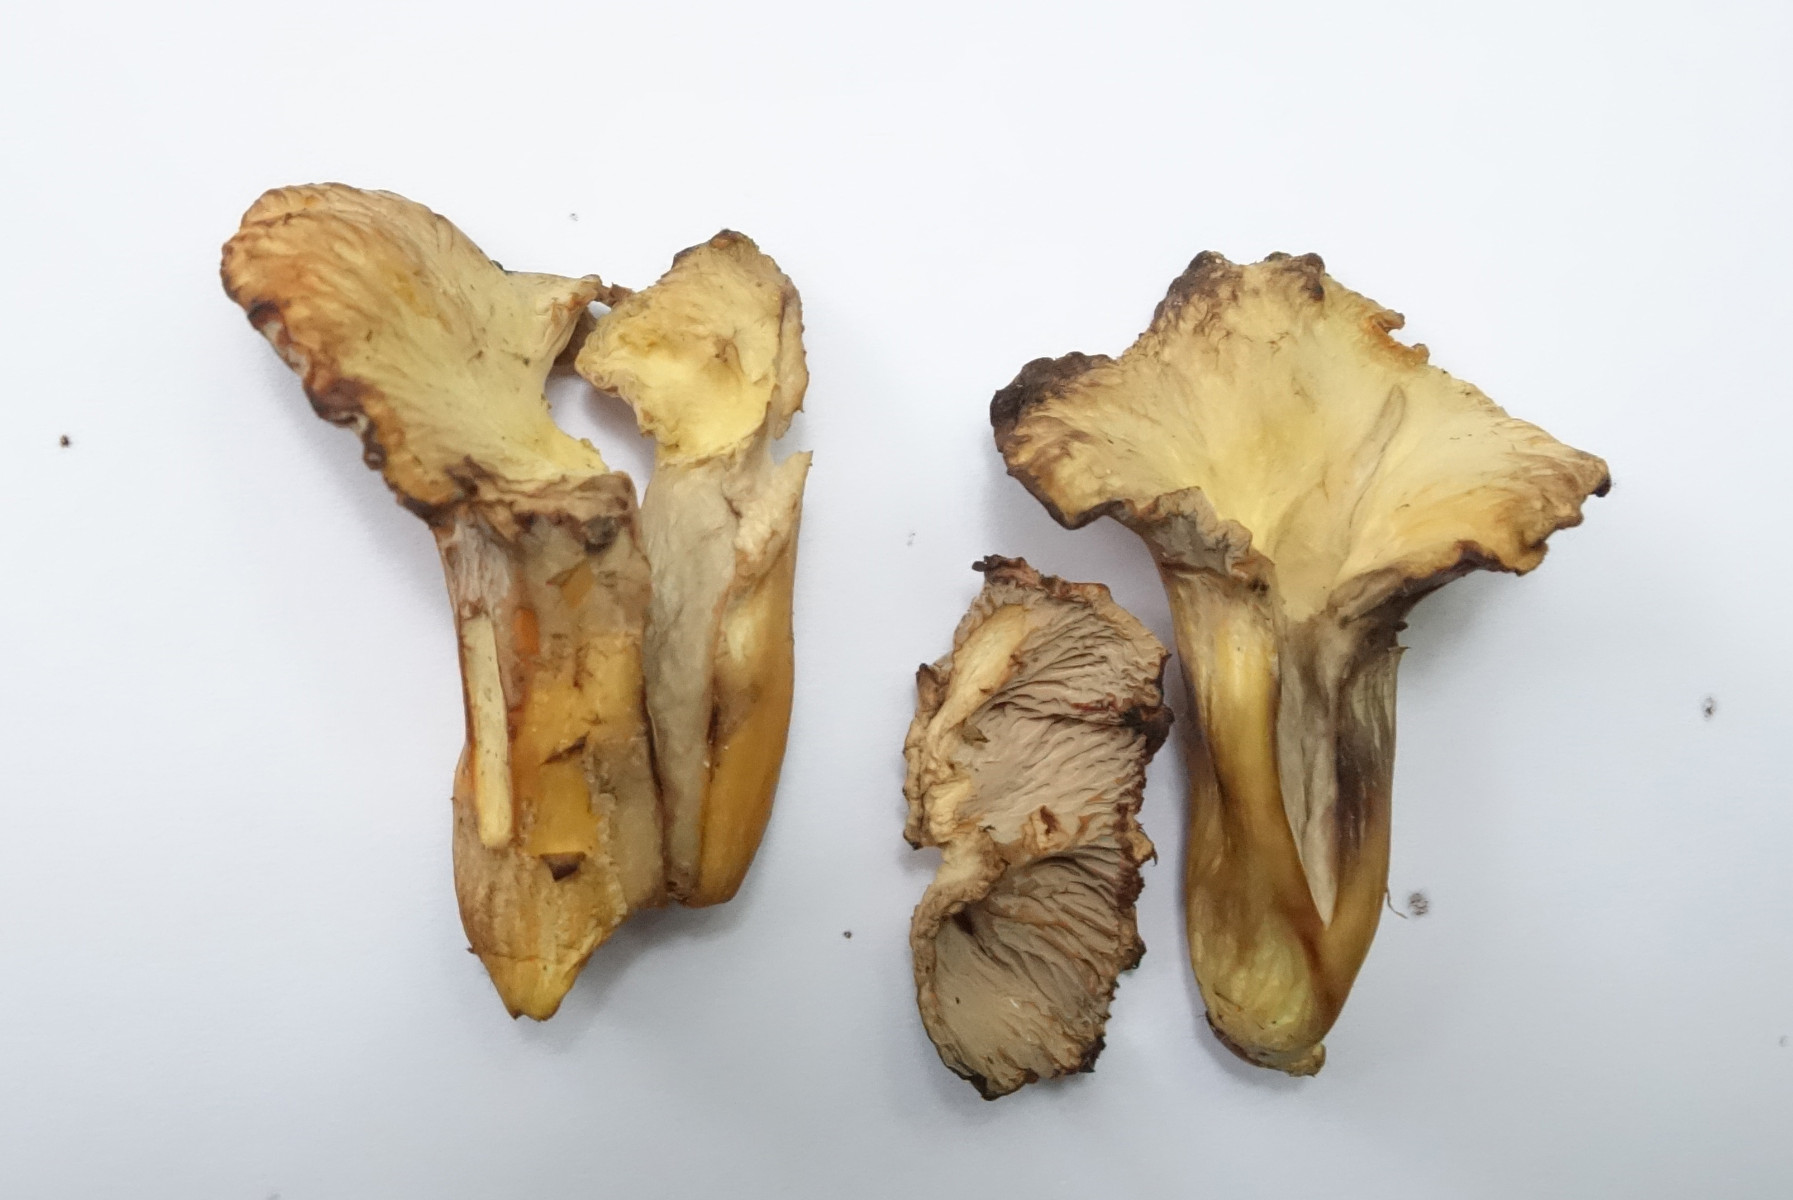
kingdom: Fungi
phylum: Basidiomycota
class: Agaricomycetes
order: Cantharellales
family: Hydnaceae
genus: Cantharellus
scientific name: Cantharellus melanoxeros
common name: sværtende kantarel
